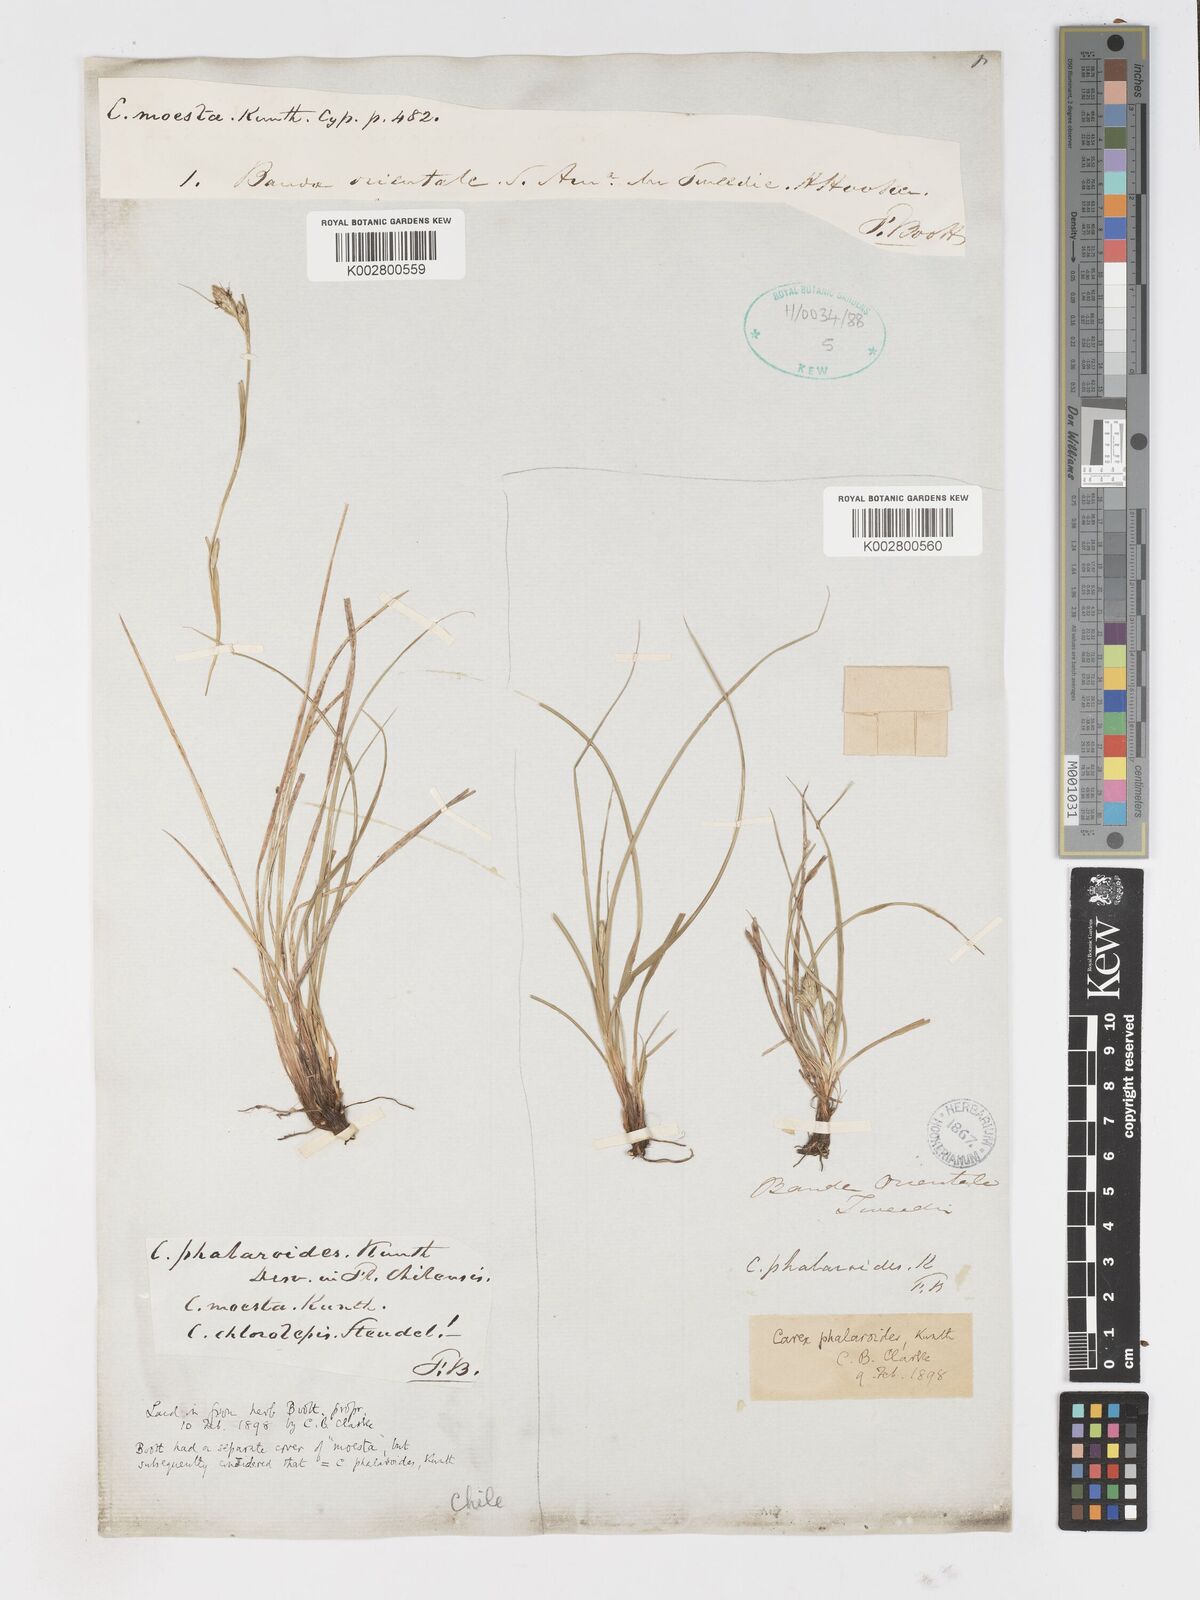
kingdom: Plantae
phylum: Tracheophyta
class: Liliopsida
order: Poales
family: Cyperaceae
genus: Carex
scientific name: Carex phalaroides
